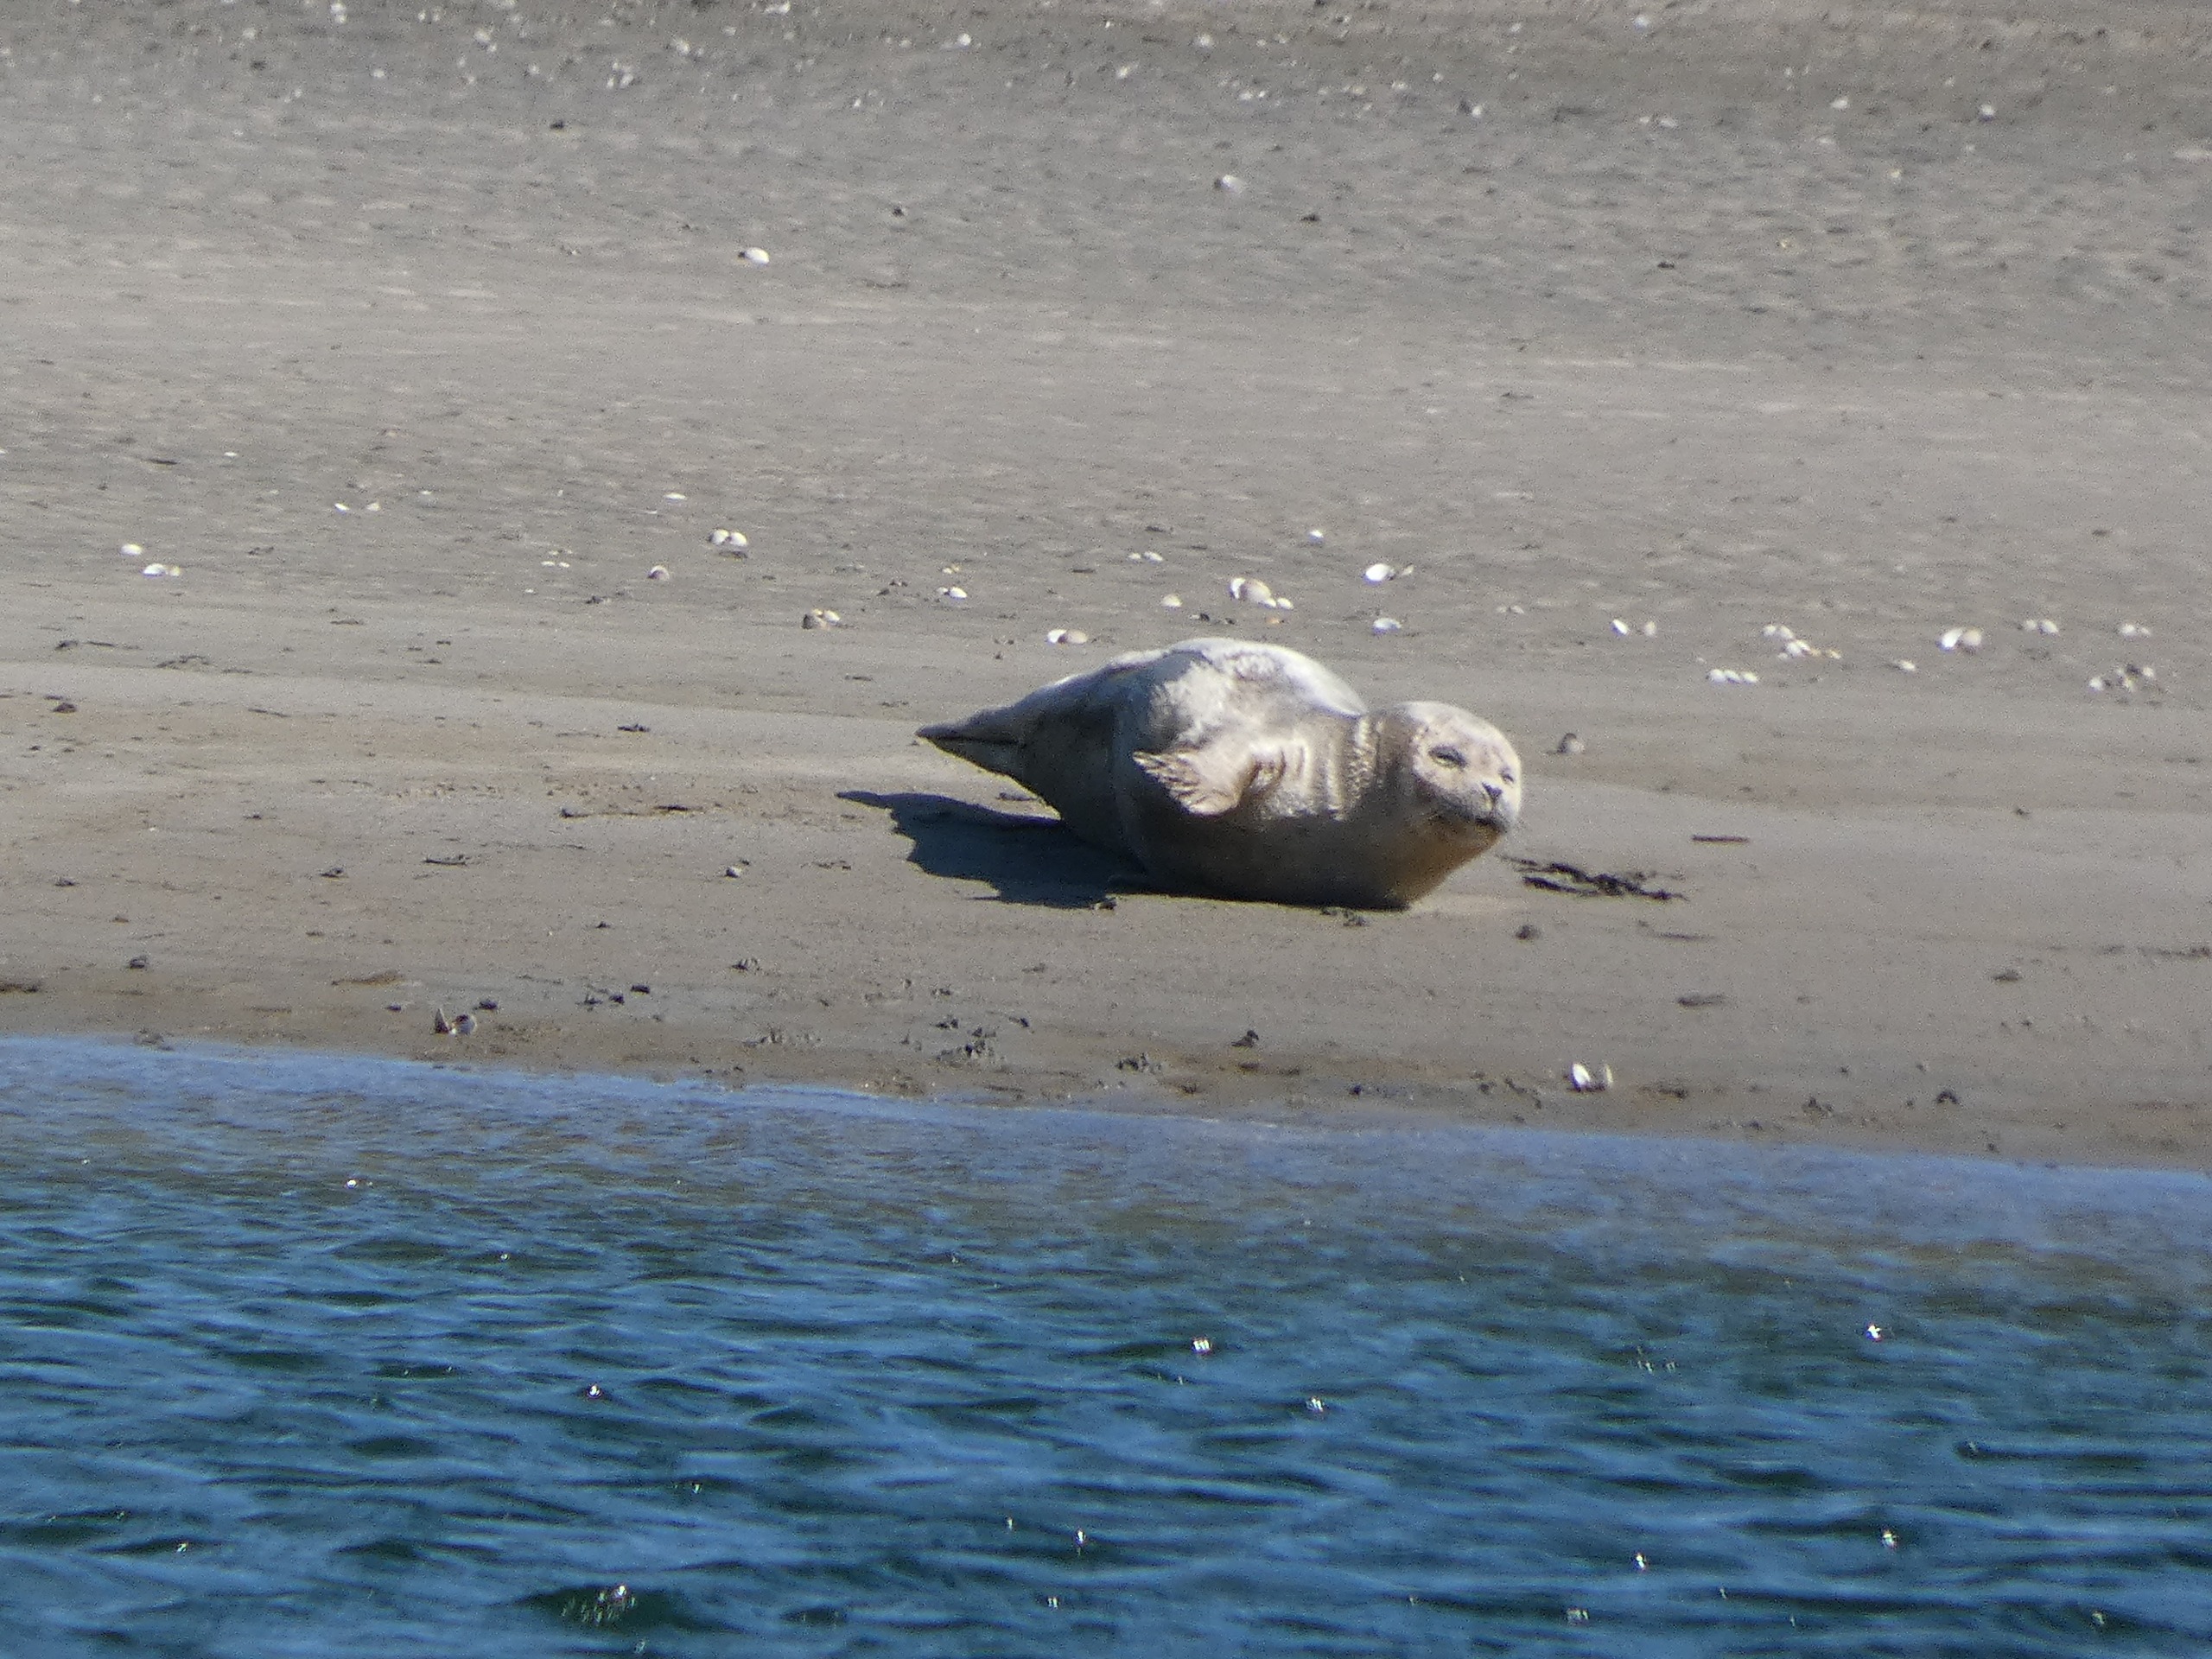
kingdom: Animalia
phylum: Chordata
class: Mammalia
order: Carnivora
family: Phocidae
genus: Phoca
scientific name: Phoca vitulina
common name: Spættet sæl
